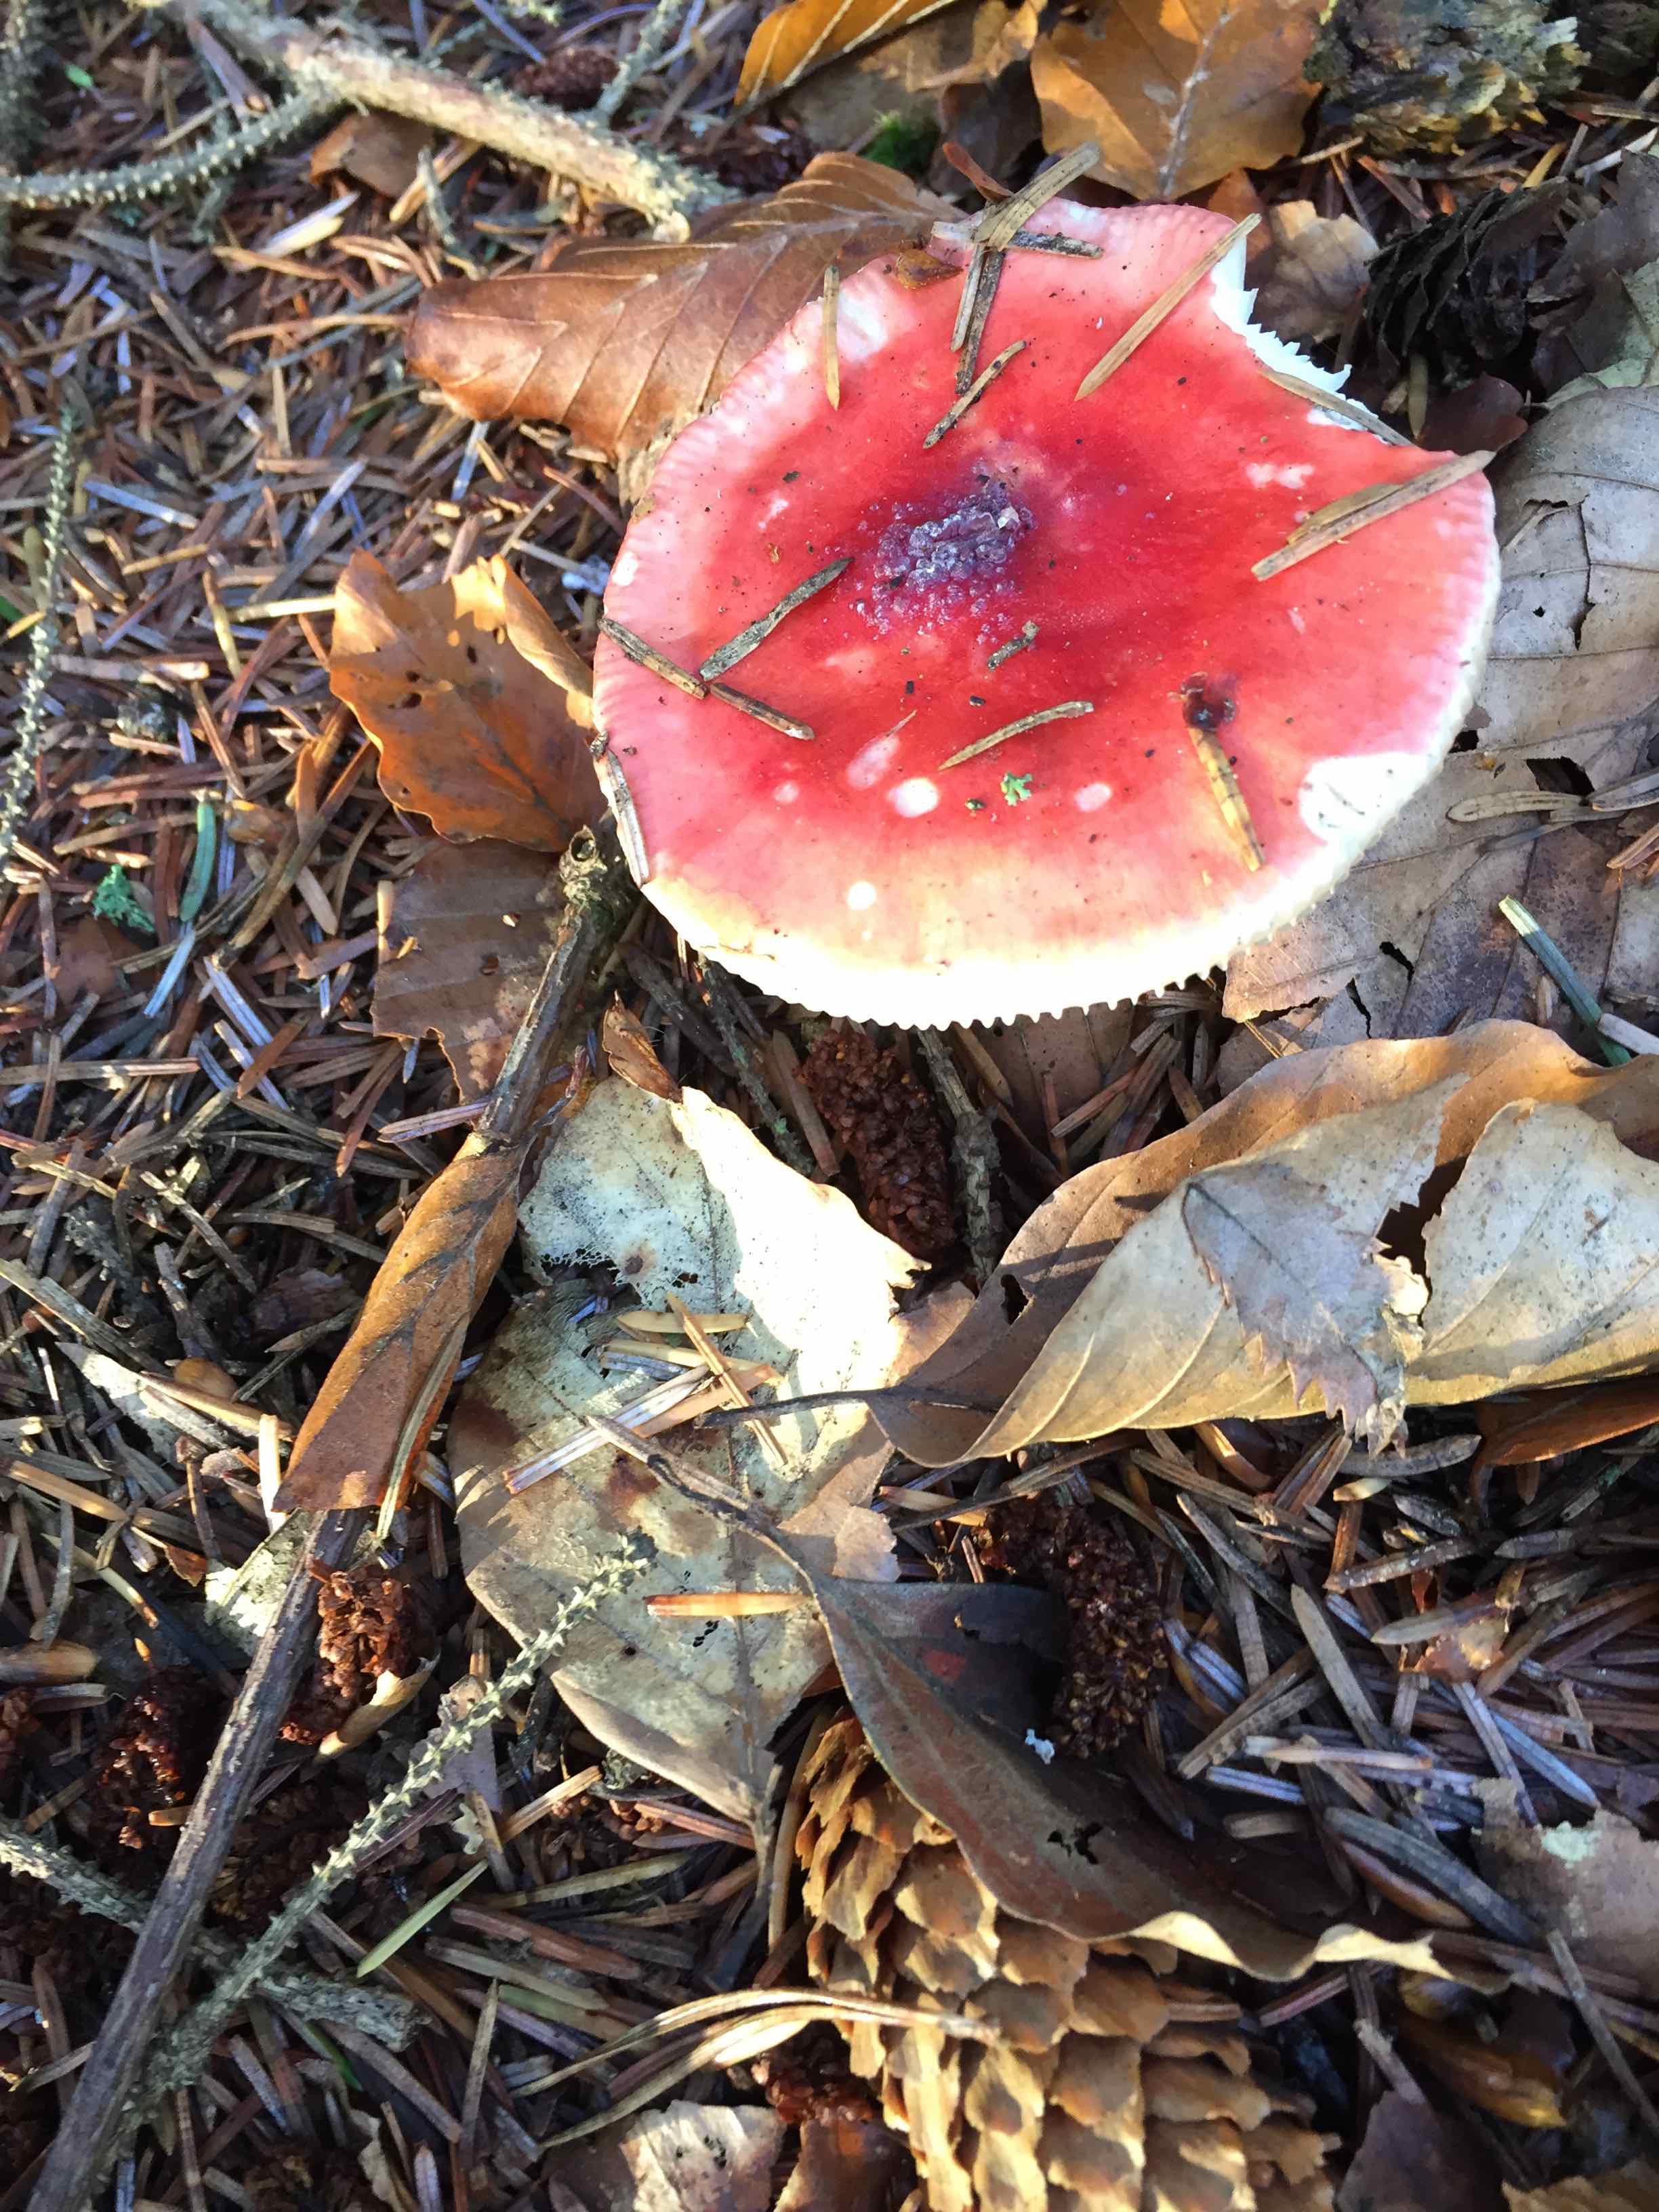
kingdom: Fungi
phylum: Basidiomycota
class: Agaricomycetes
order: Russulales
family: Russulaceae
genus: Russula
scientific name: Russula
